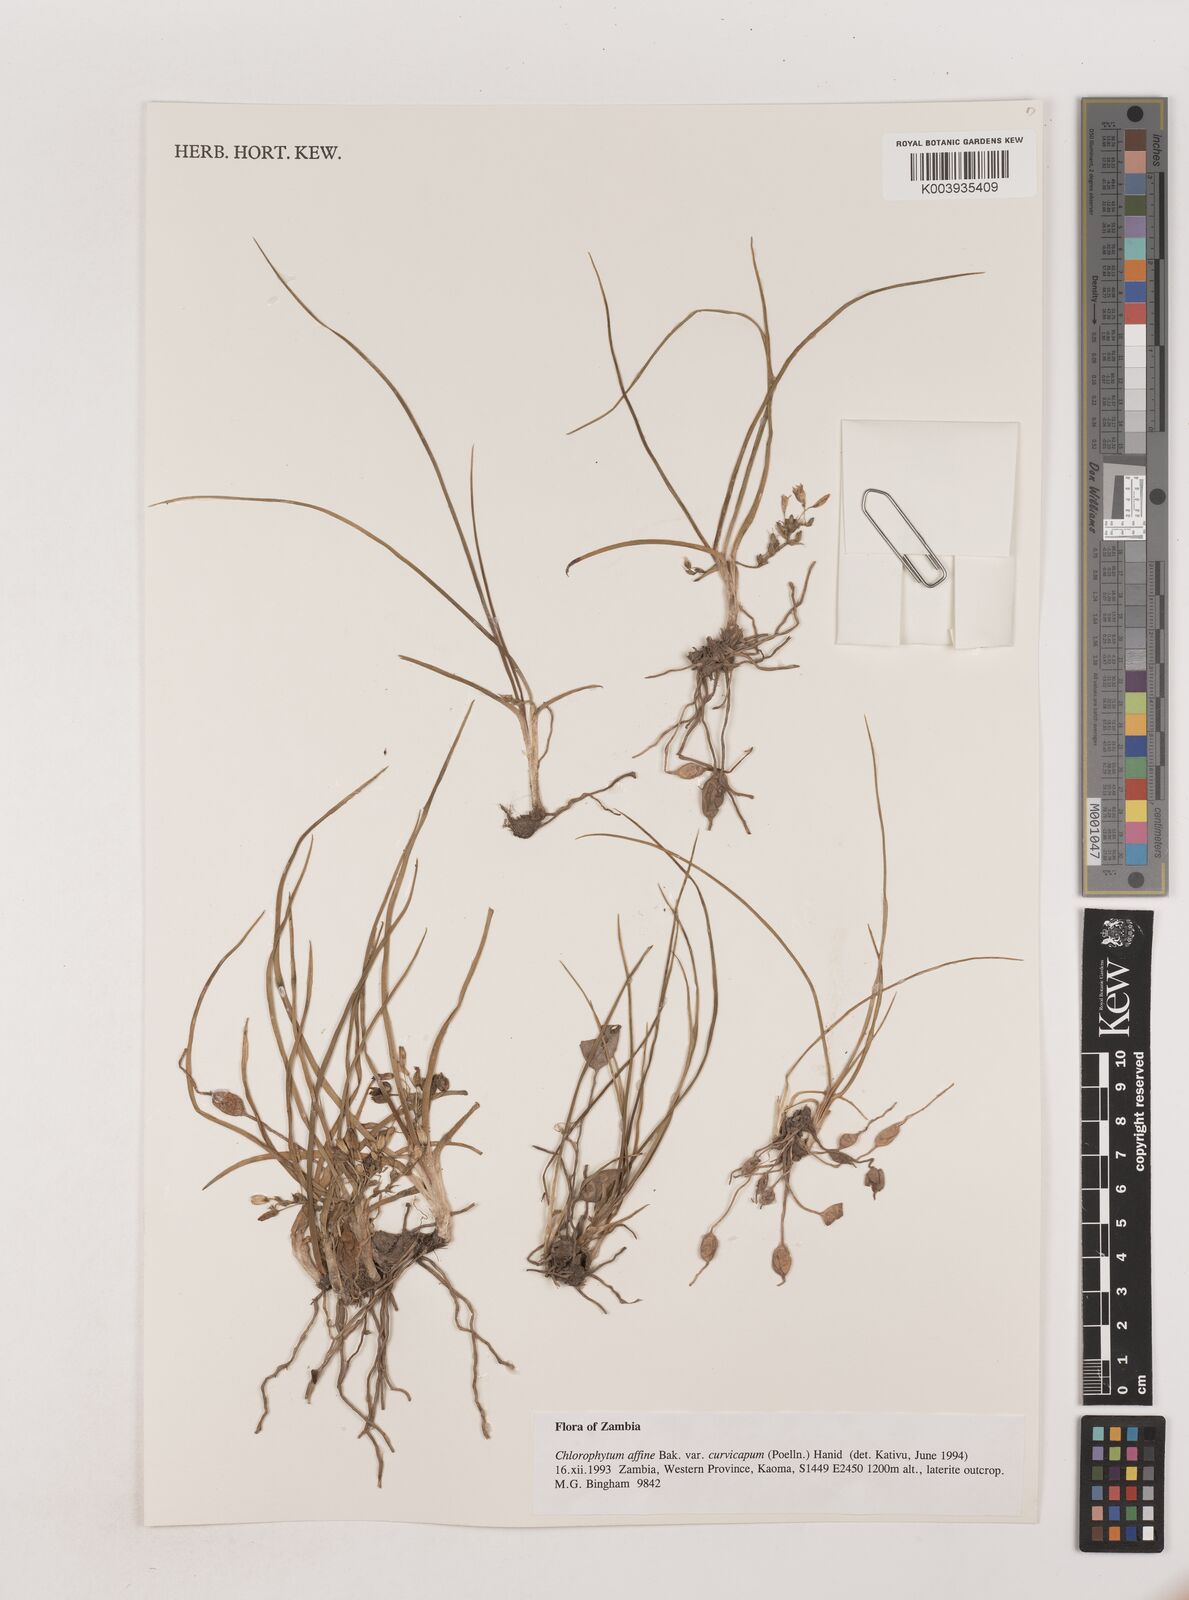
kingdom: Plantae
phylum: Tracheophyta
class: Liliopsida
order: Asparagales
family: Asparagaceae
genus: Chlorophytum
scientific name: Chlorophytum tordense
